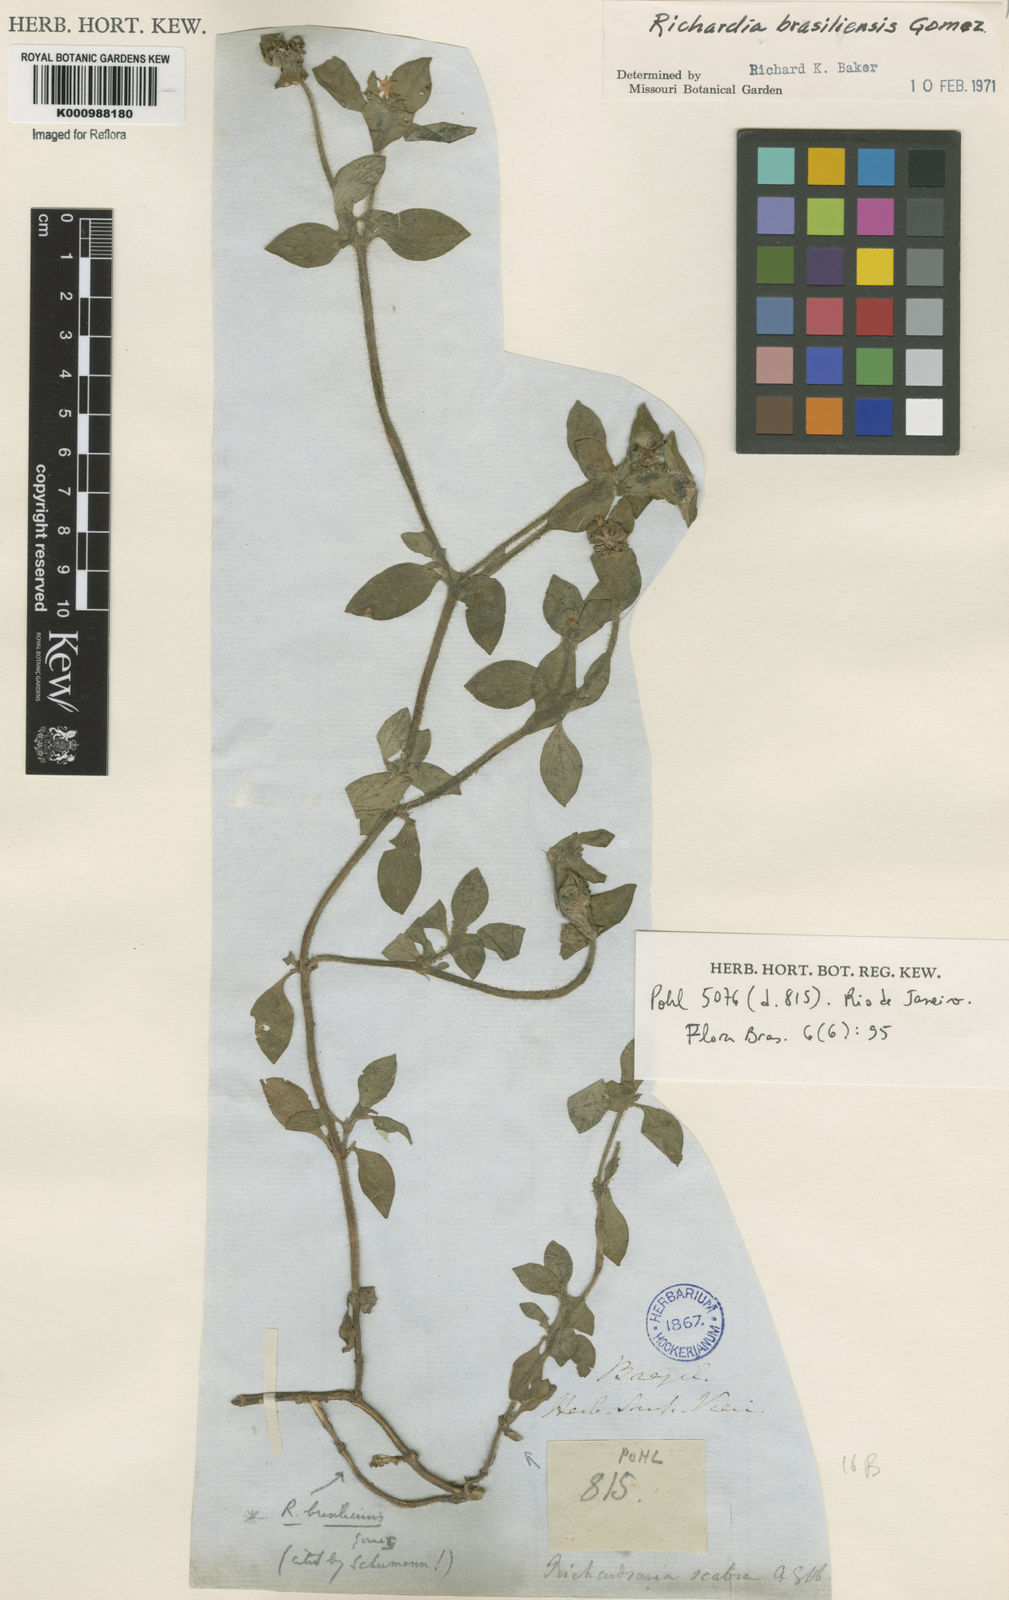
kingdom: Plantae
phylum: Tracheophyta
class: Magnoliopsida
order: Gentianales
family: Rubiaceae
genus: Richardia
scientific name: Richardia brasiliensis
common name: Tropical mexican clover
